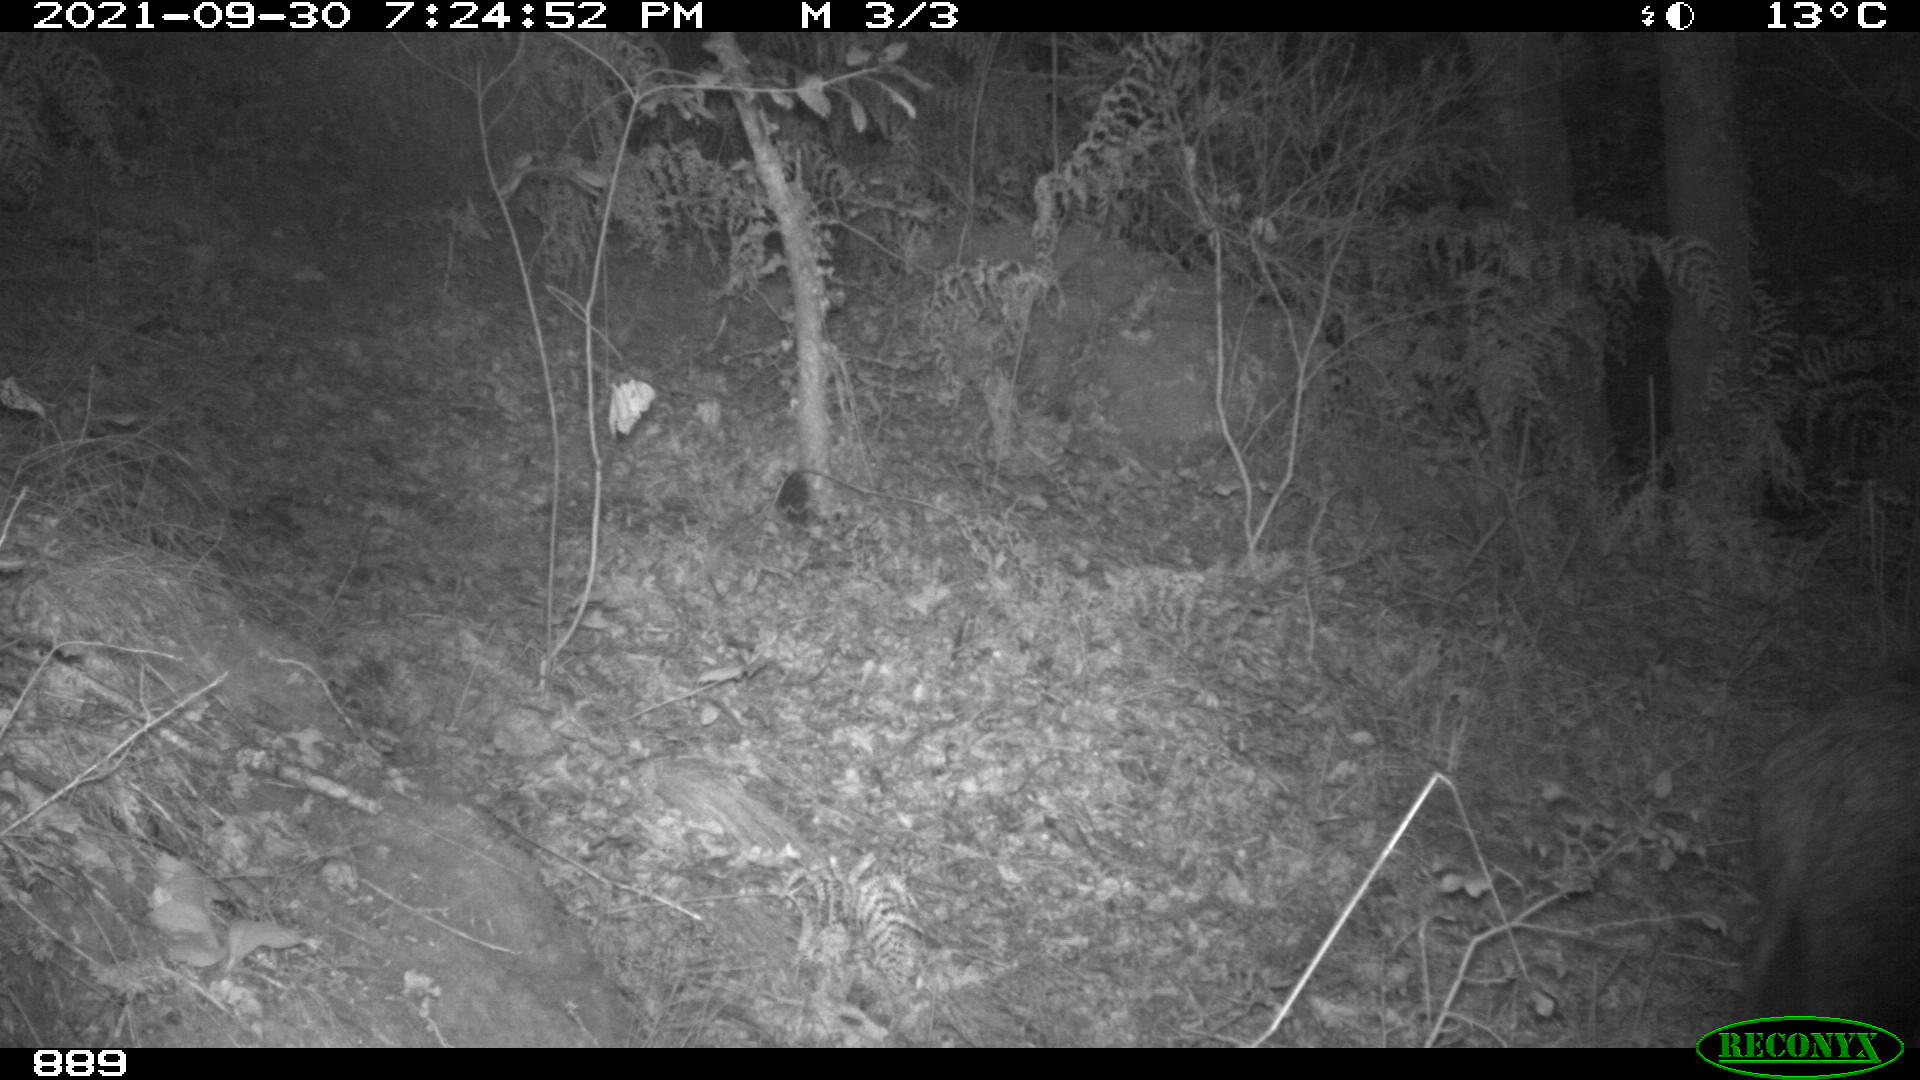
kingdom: Animalia
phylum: Chordata
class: Mammalia
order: Artiodactyla
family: Suidae
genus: Sus
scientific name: Sus scrofa
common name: Wild boar
